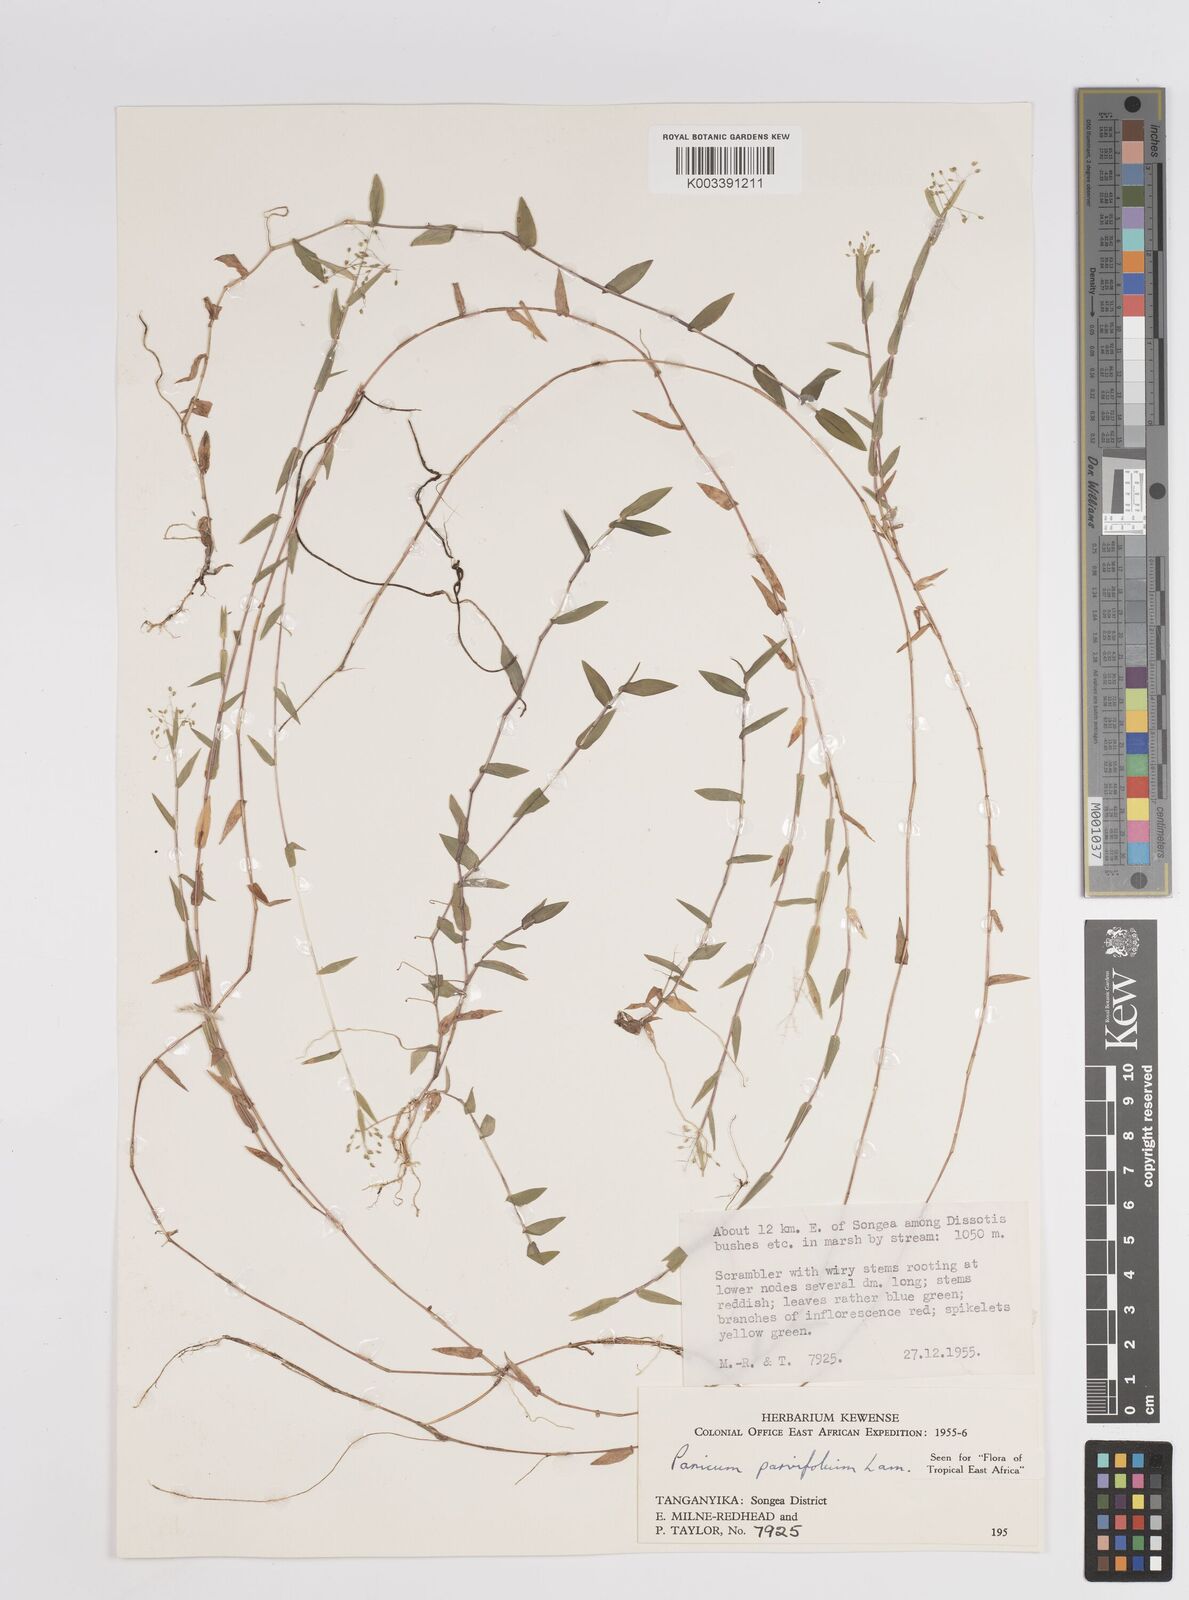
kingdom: Plantae
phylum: Tracheophyta
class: Liliopsida
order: Poales
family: Poaceae
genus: Trichanthecium
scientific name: Trichanthecium parvifolium
